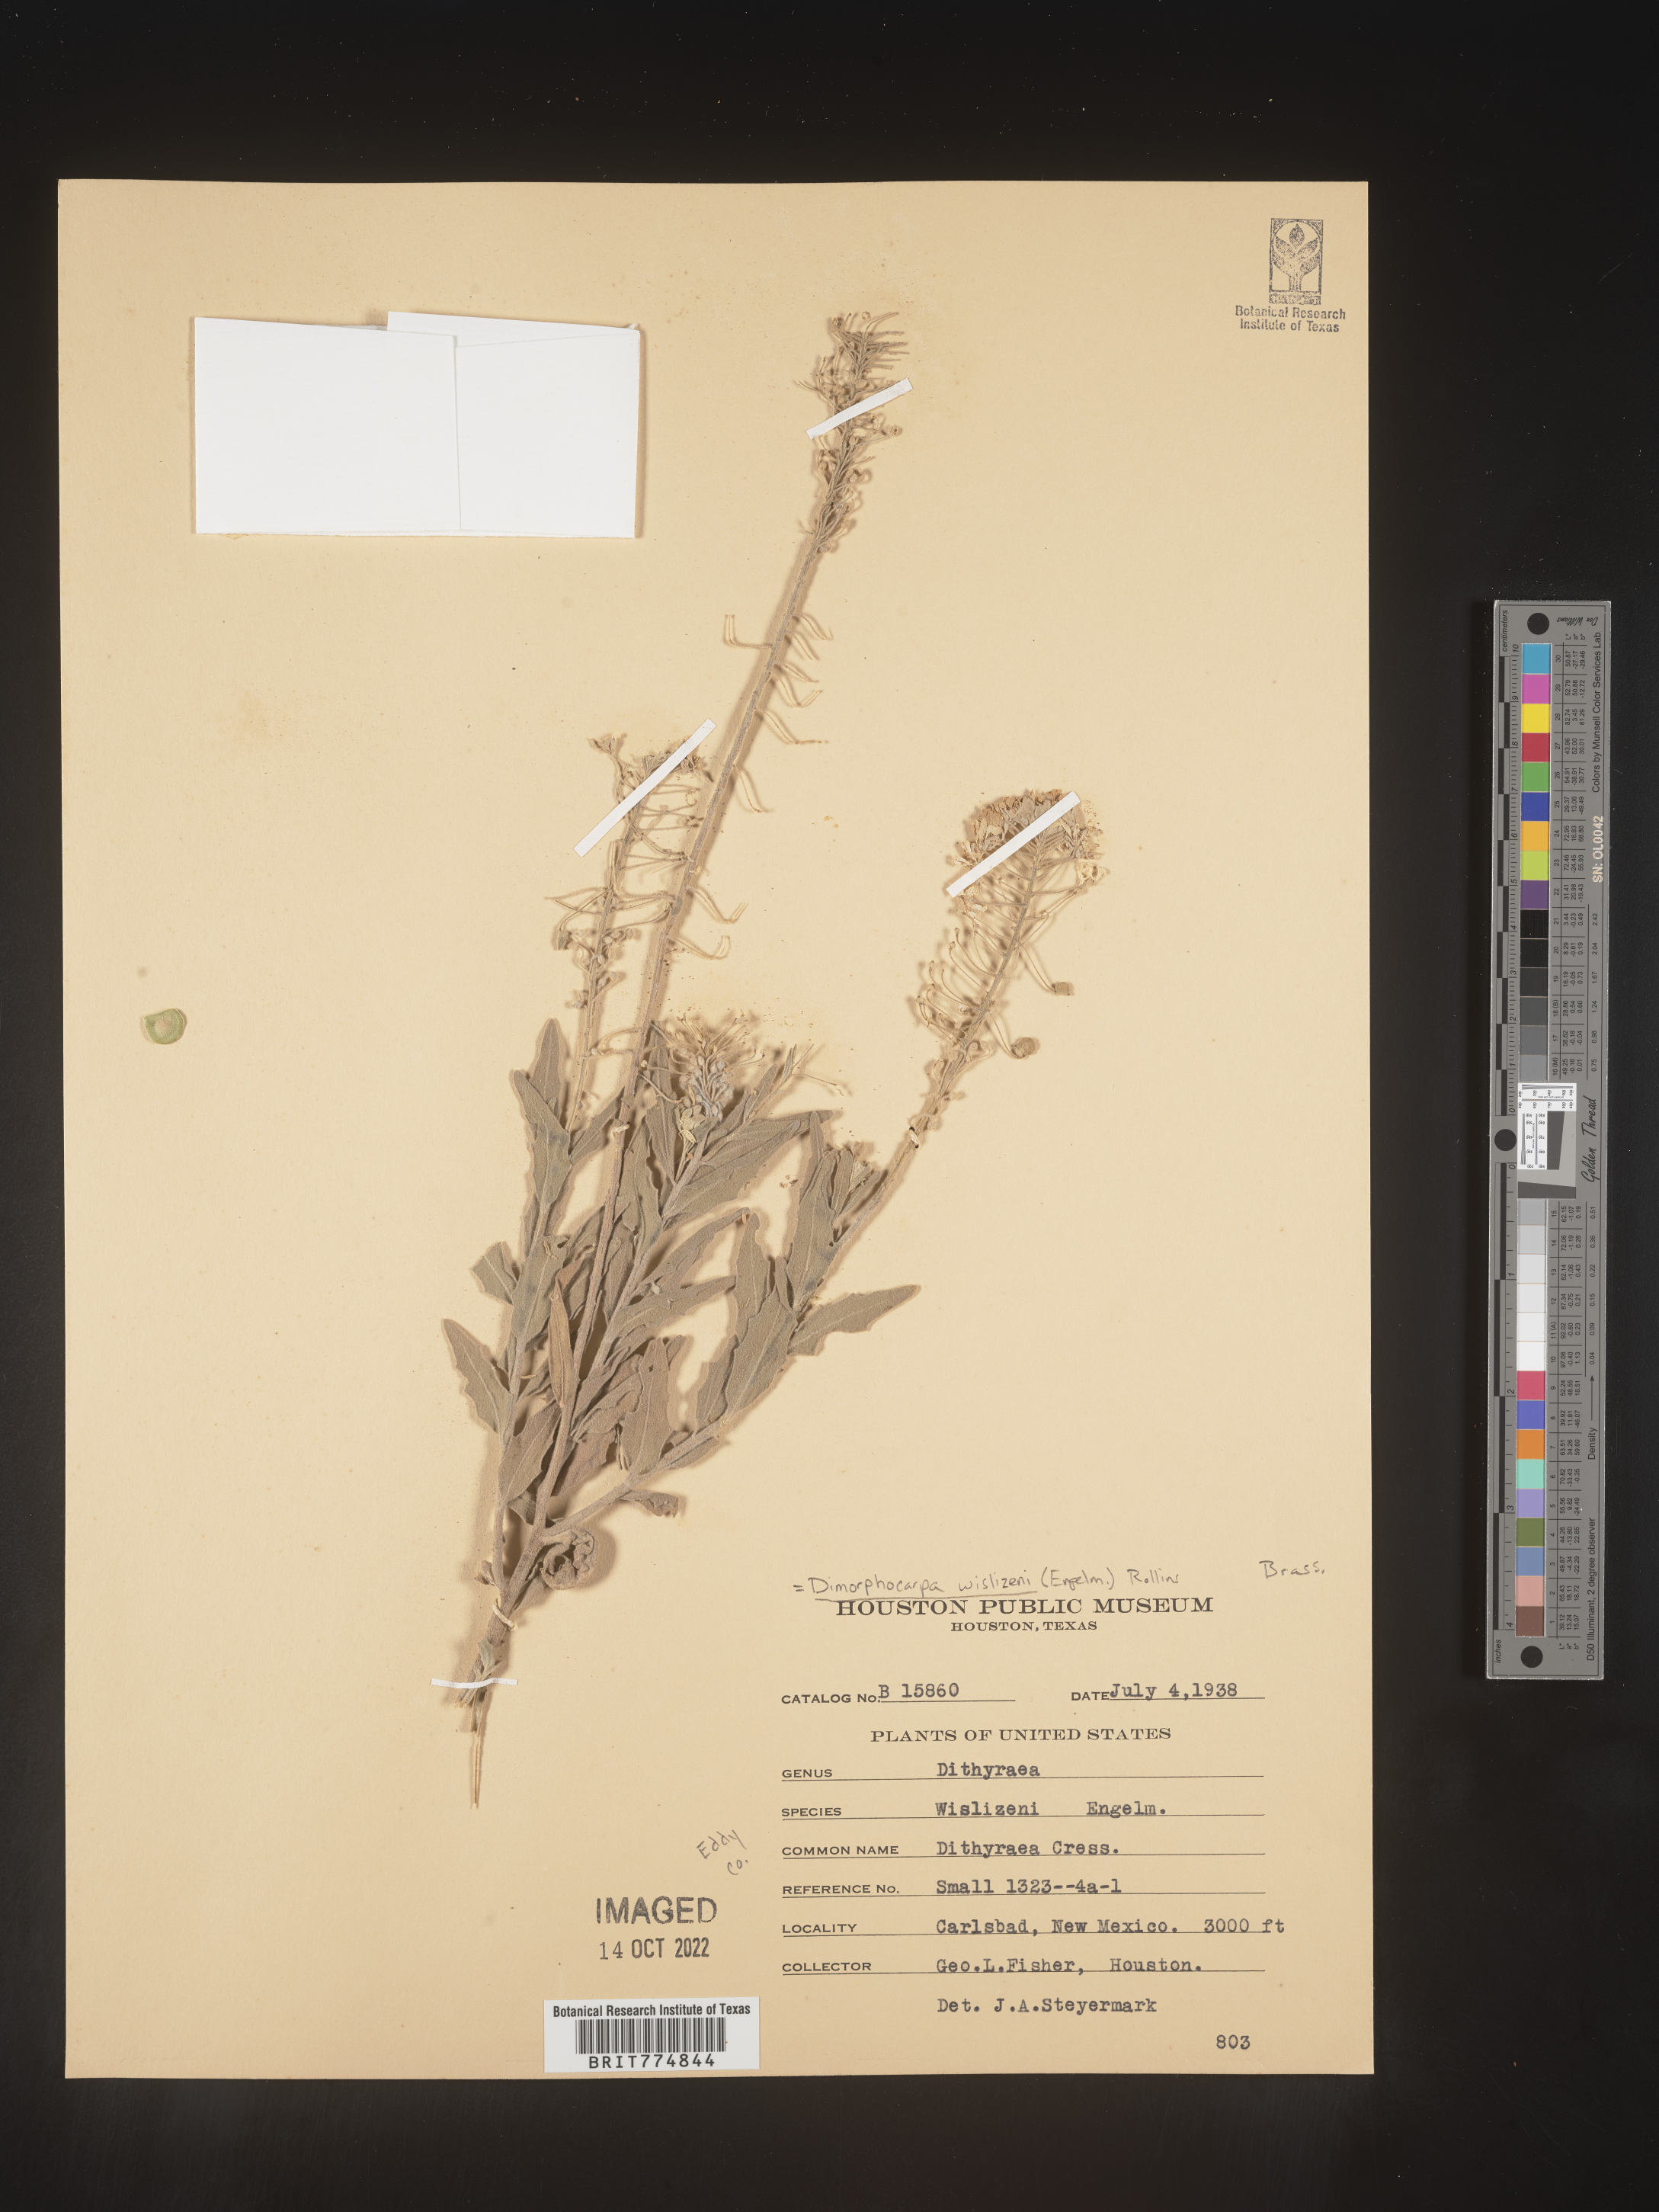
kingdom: Plantae
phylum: Tracheophyta
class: Magnoliopsida
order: Brassicales
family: Brassicaceae
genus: Dimorphocarpa
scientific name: Dimorphocarpa
